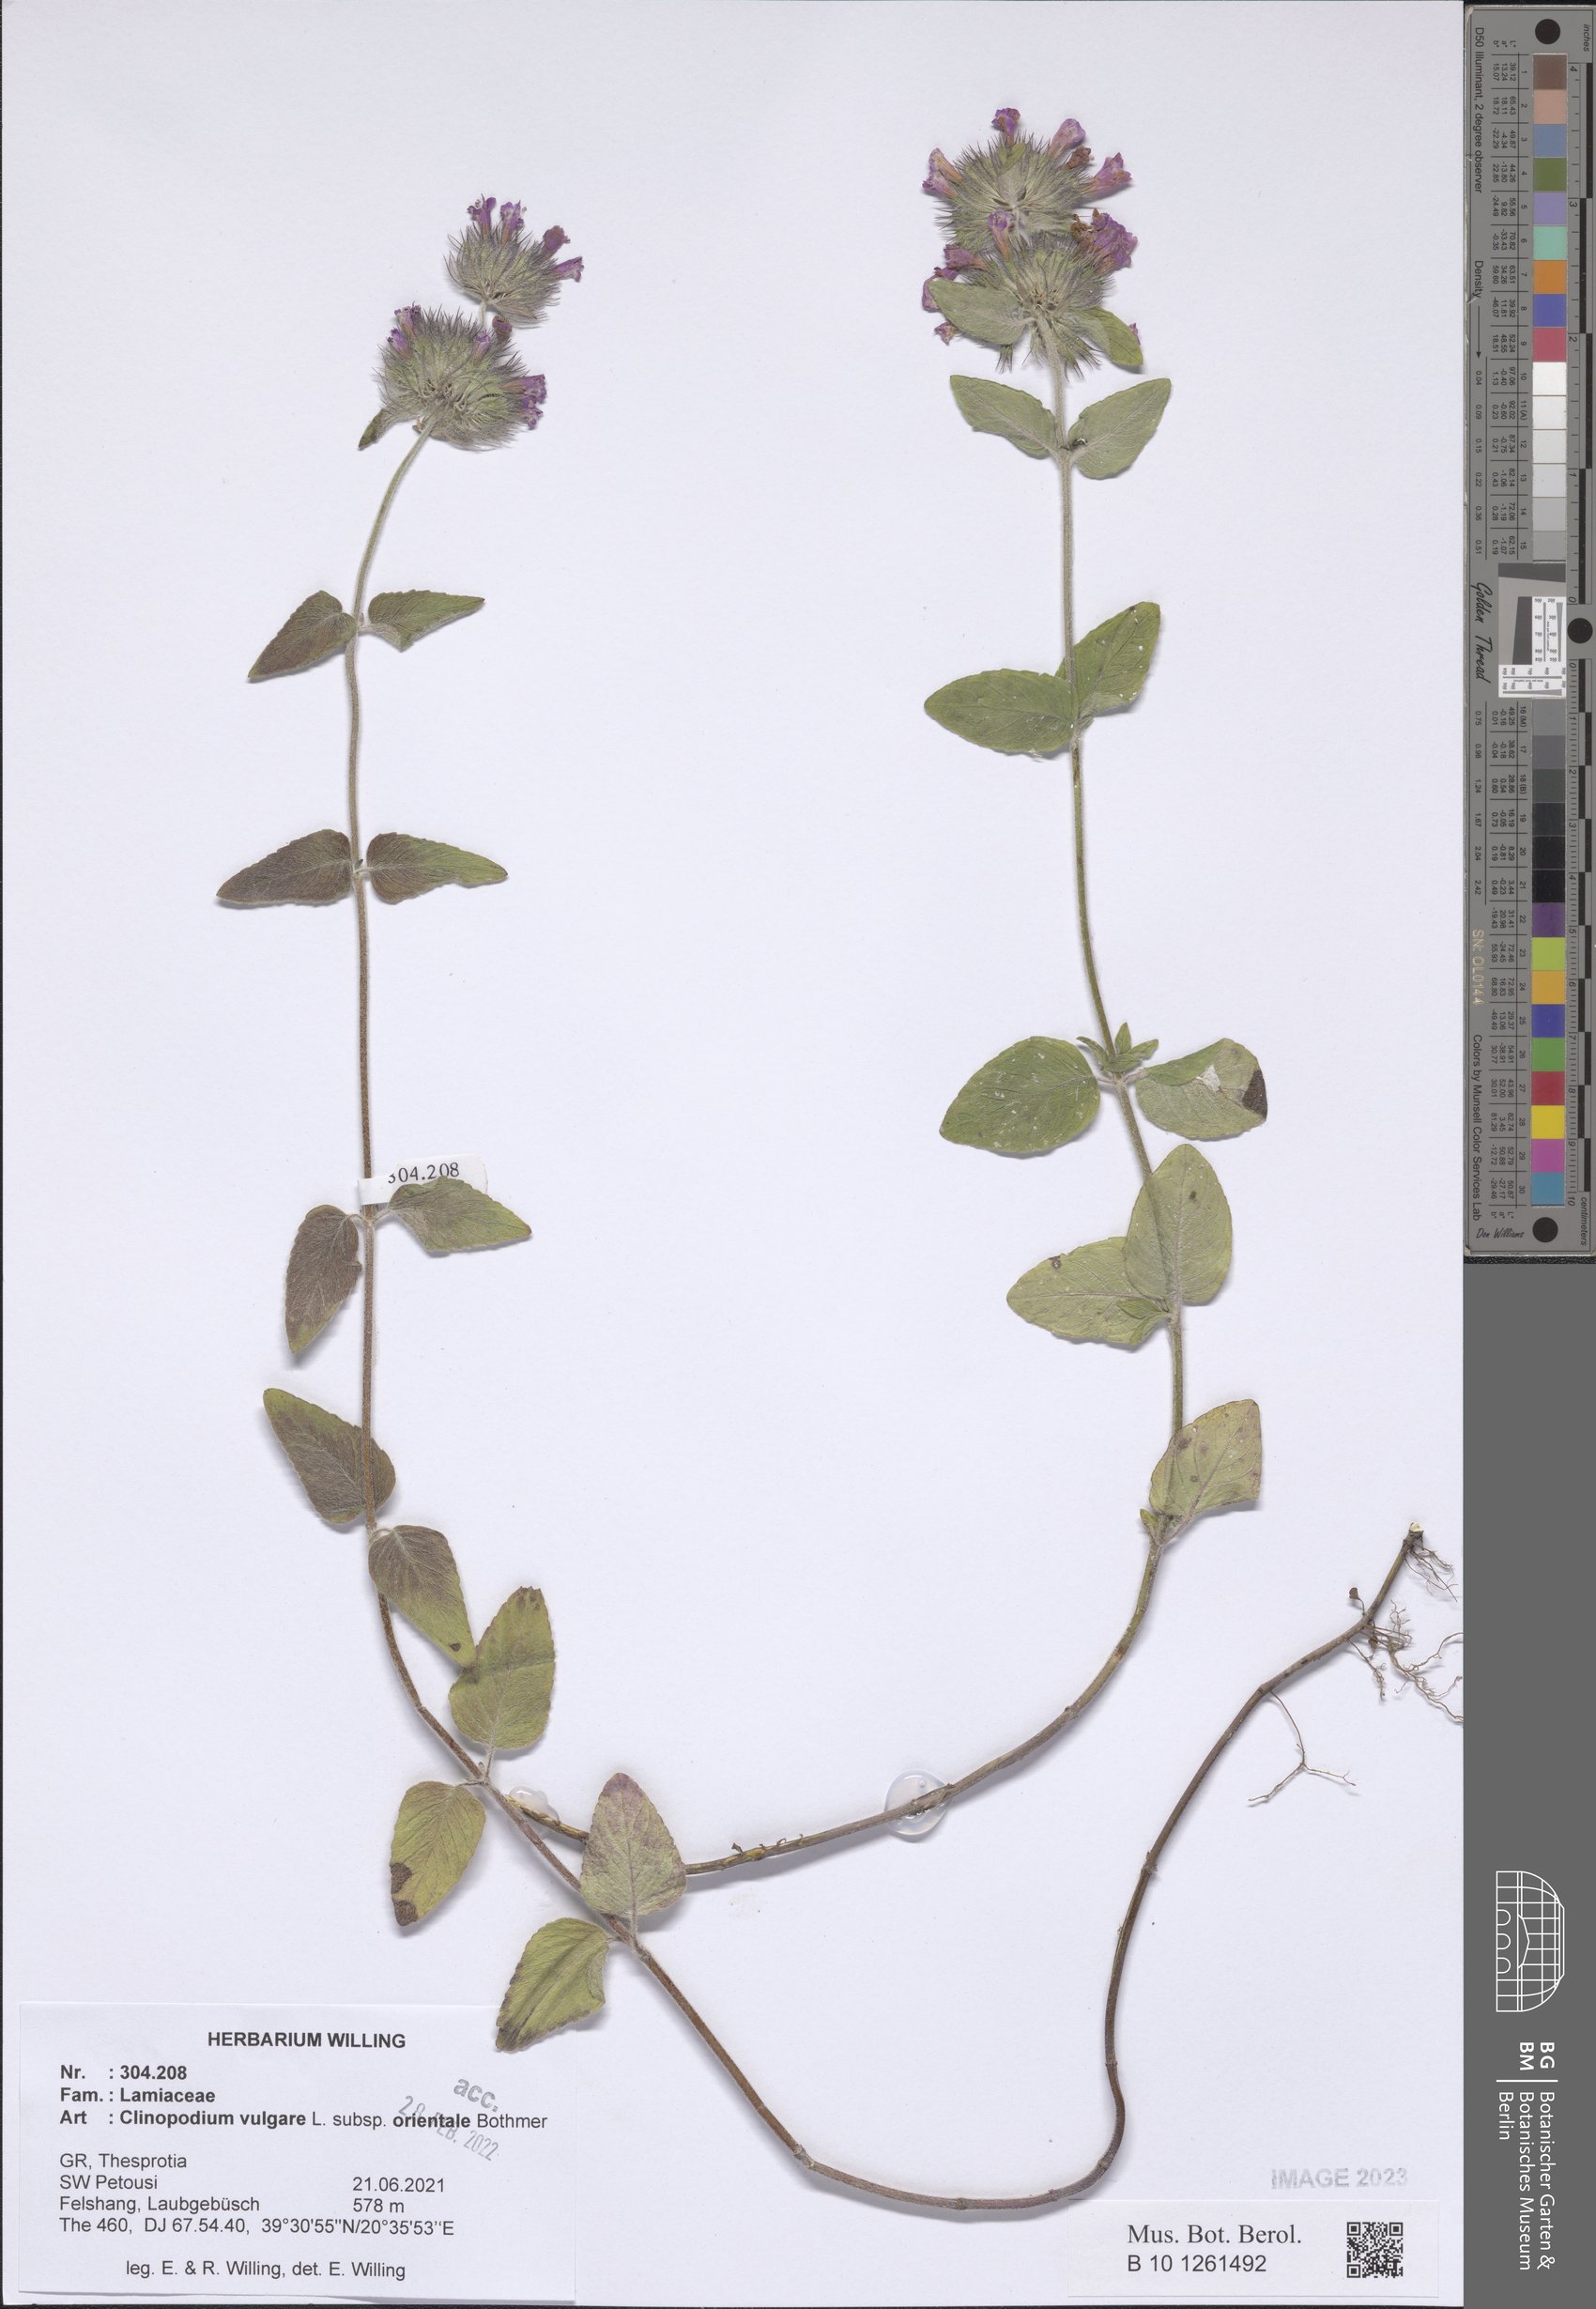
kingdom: Plantae
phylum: Tracheophyta
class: Magnoliopsida
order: Lamiales
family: Lamiaceae
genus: Clinopodium
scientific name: Clinopodium vulgare
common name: Wild basil
